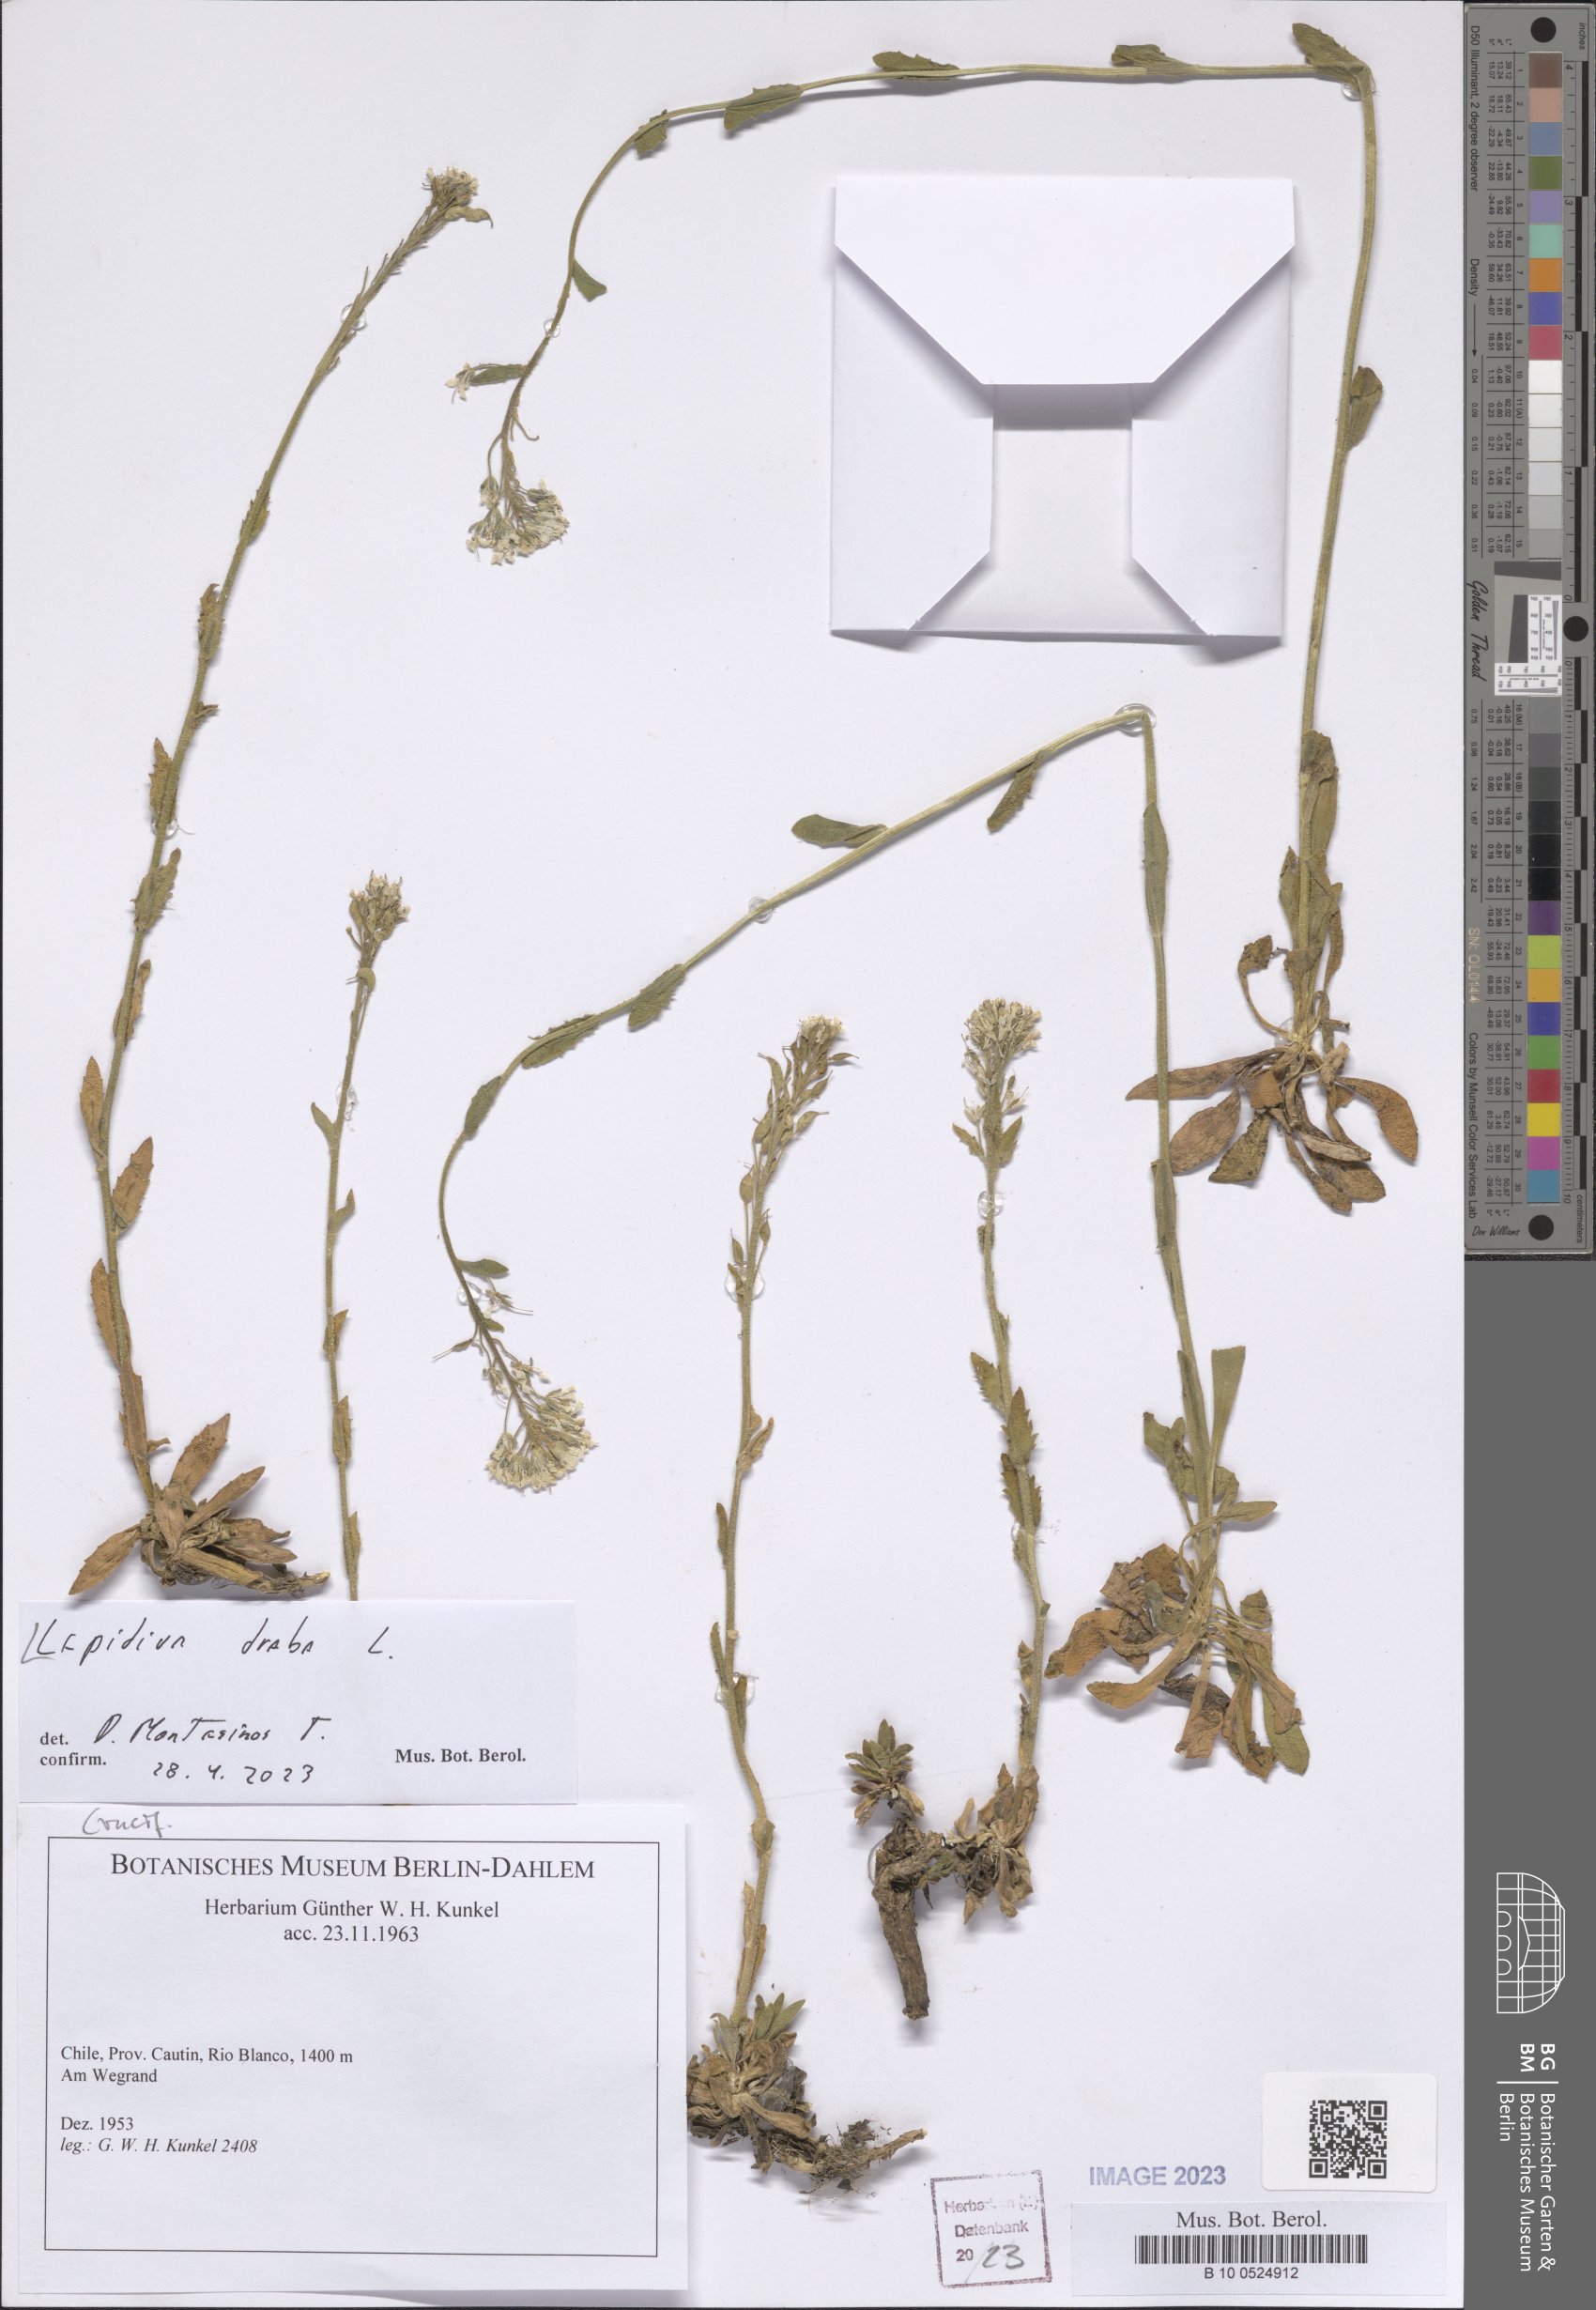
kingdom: Plantae
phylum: Tracheophyta
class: Magnoliopsida
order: Brassicales
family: Brassicaceae
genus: Lepidium
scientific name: Lepidium draba
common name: Hoary cress
